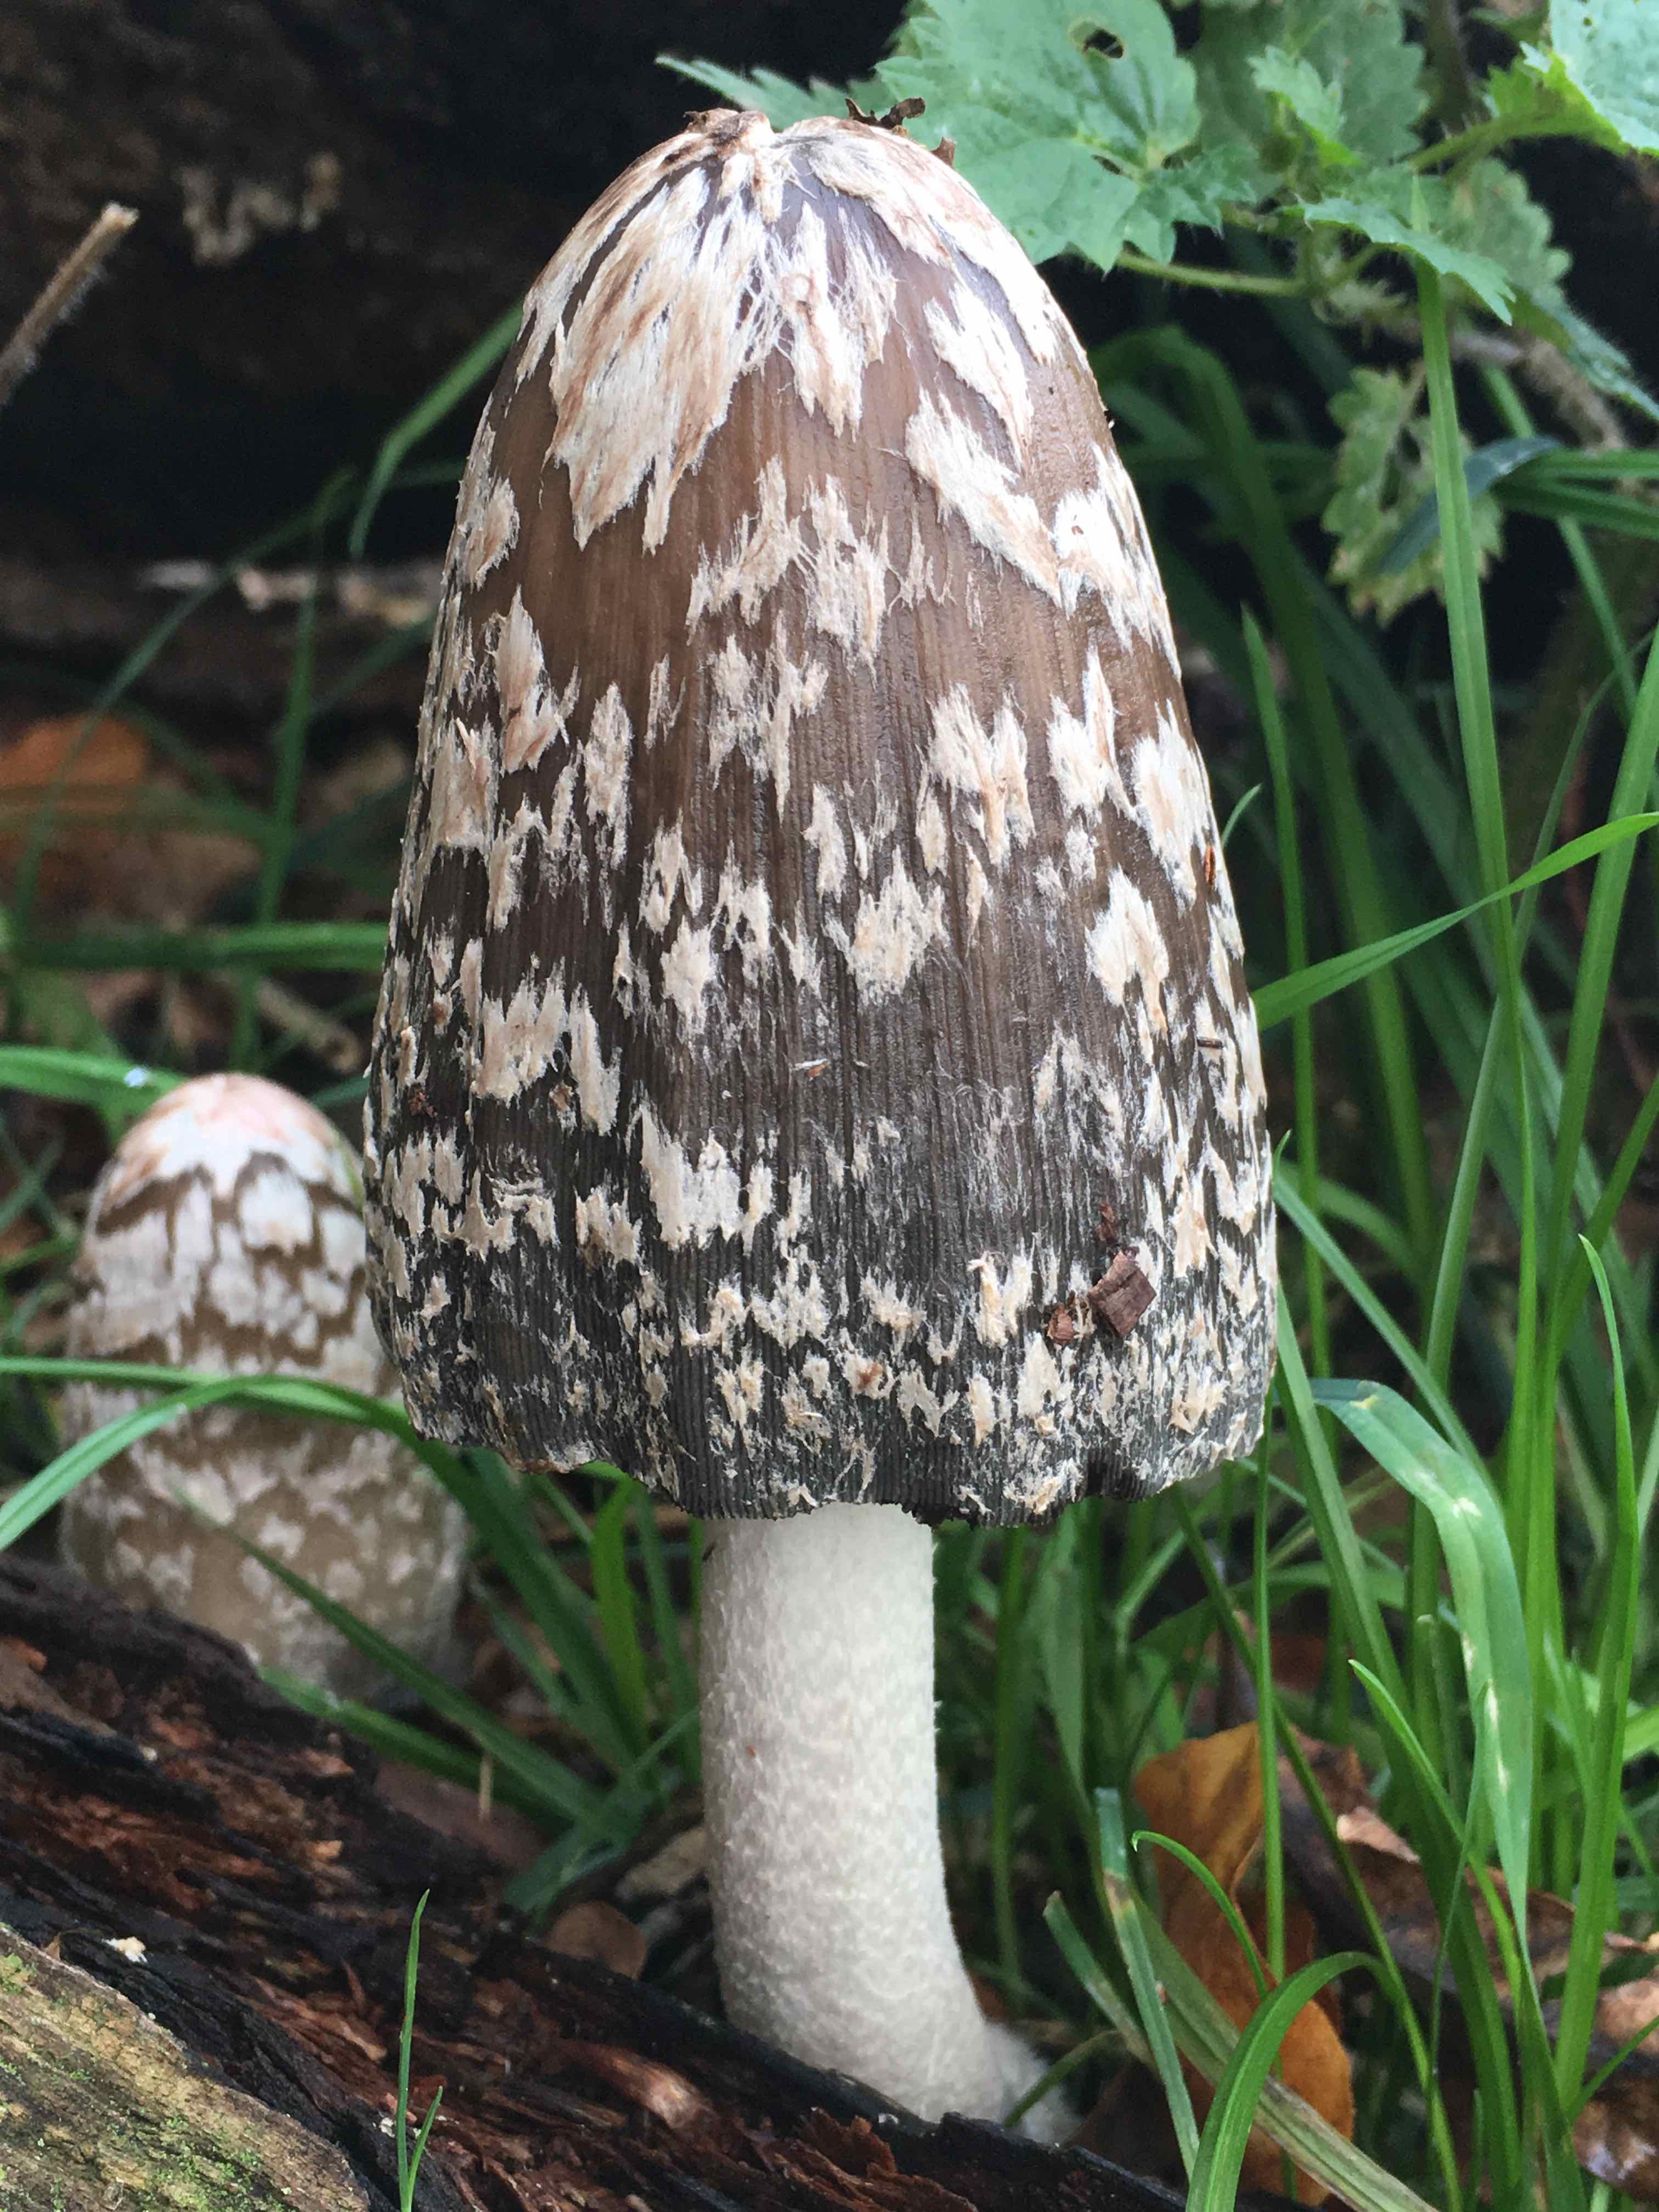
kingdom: Fungi
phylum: Basidiomycota
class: Agaricomycetes
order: Agaricales
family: Psathyrellaceae
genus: Coprinopsis
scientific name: Coprinopsis picacea
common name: skade-blækhat
